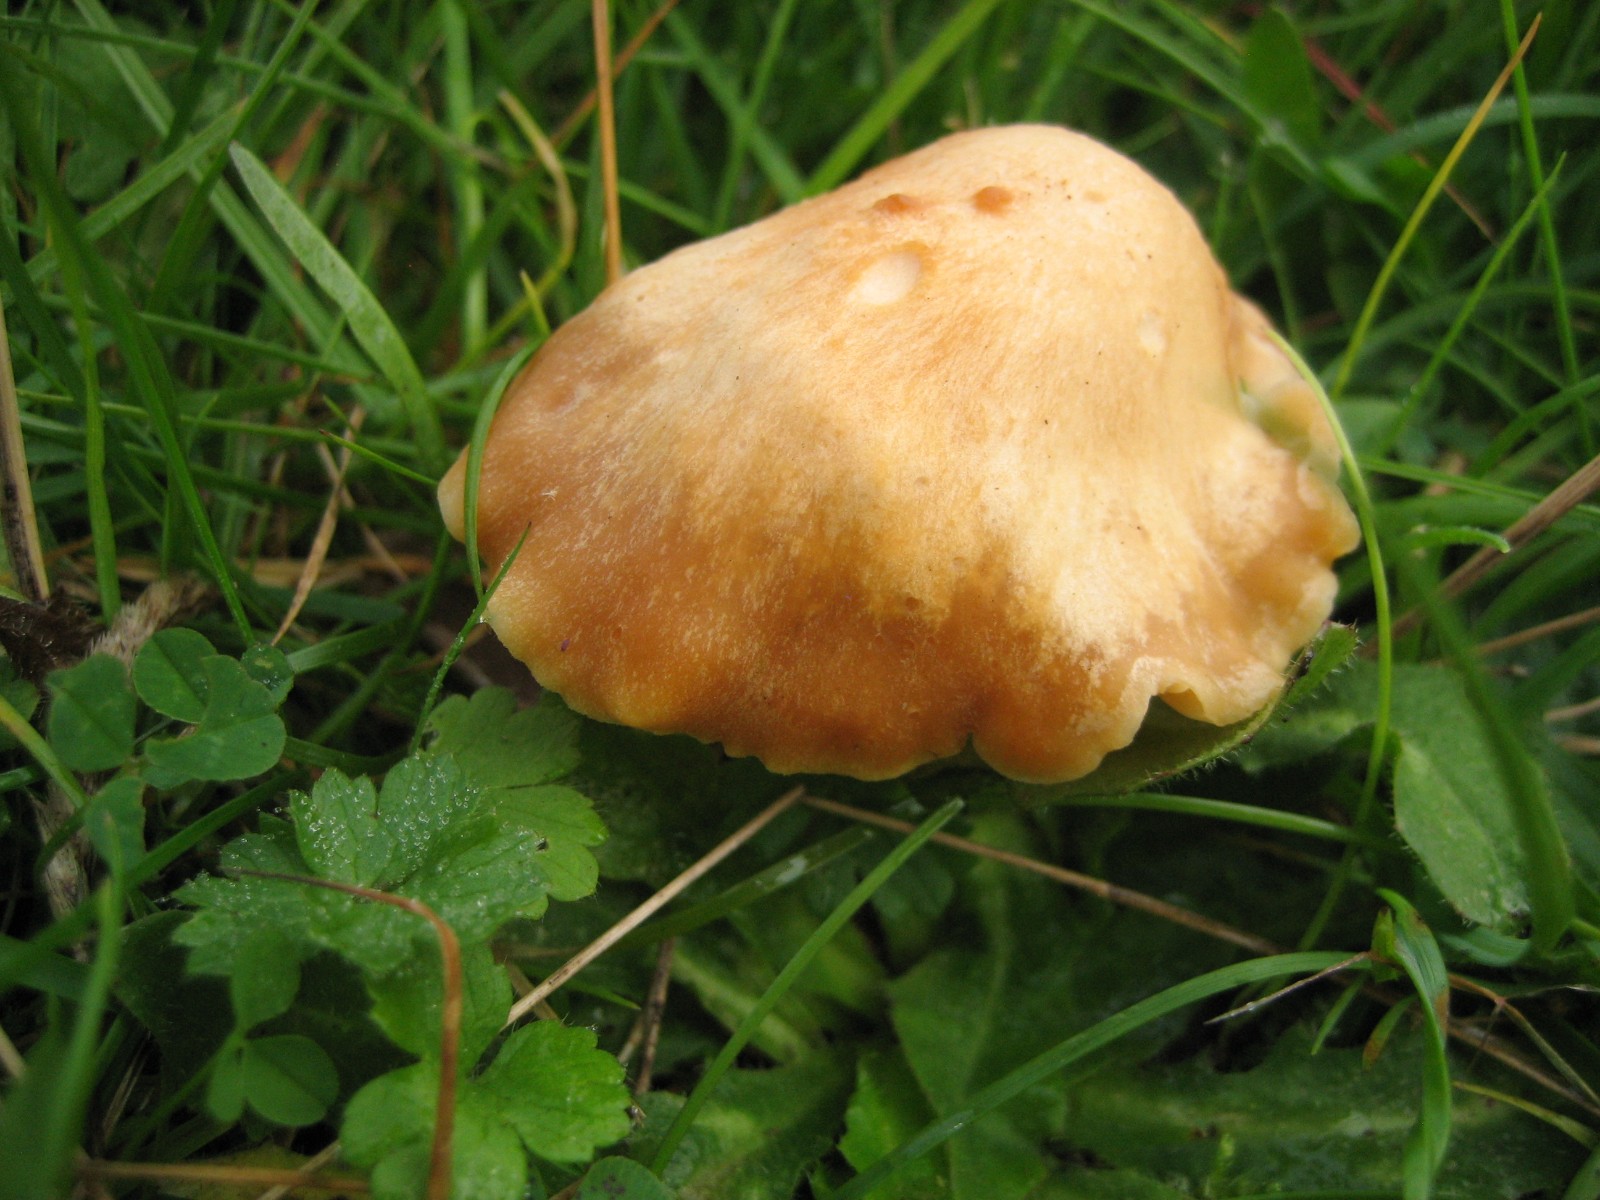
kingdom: Fungi
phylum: Basidiomycota
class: Agaricomycetes
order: Agaricales
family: Hygrophoraceae
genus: Cuphophyllus
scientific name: Cuphophyllus pratensis
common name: eng-vokshat
